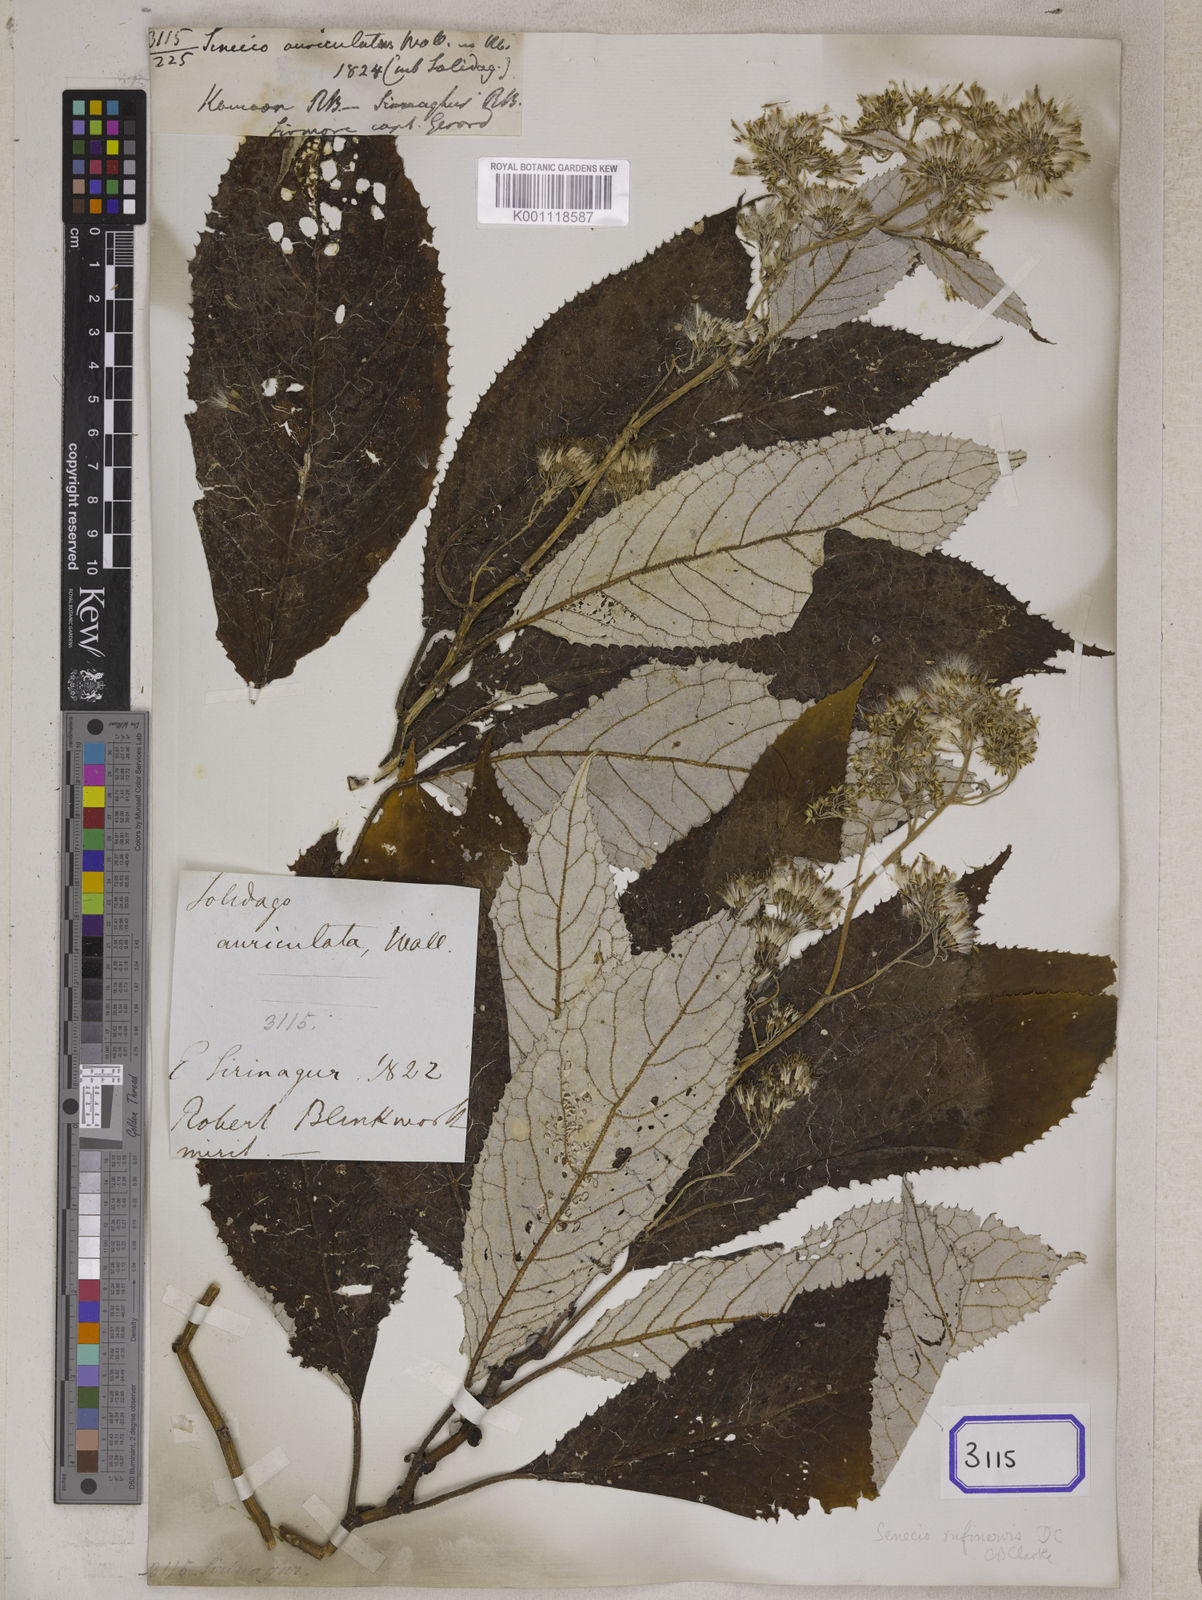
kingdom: Plantae
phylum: Tracheophyta
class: Magnoliopsida
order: Asterales
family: Asteraceae
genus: Synotis
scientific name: Synotis rufinervis
